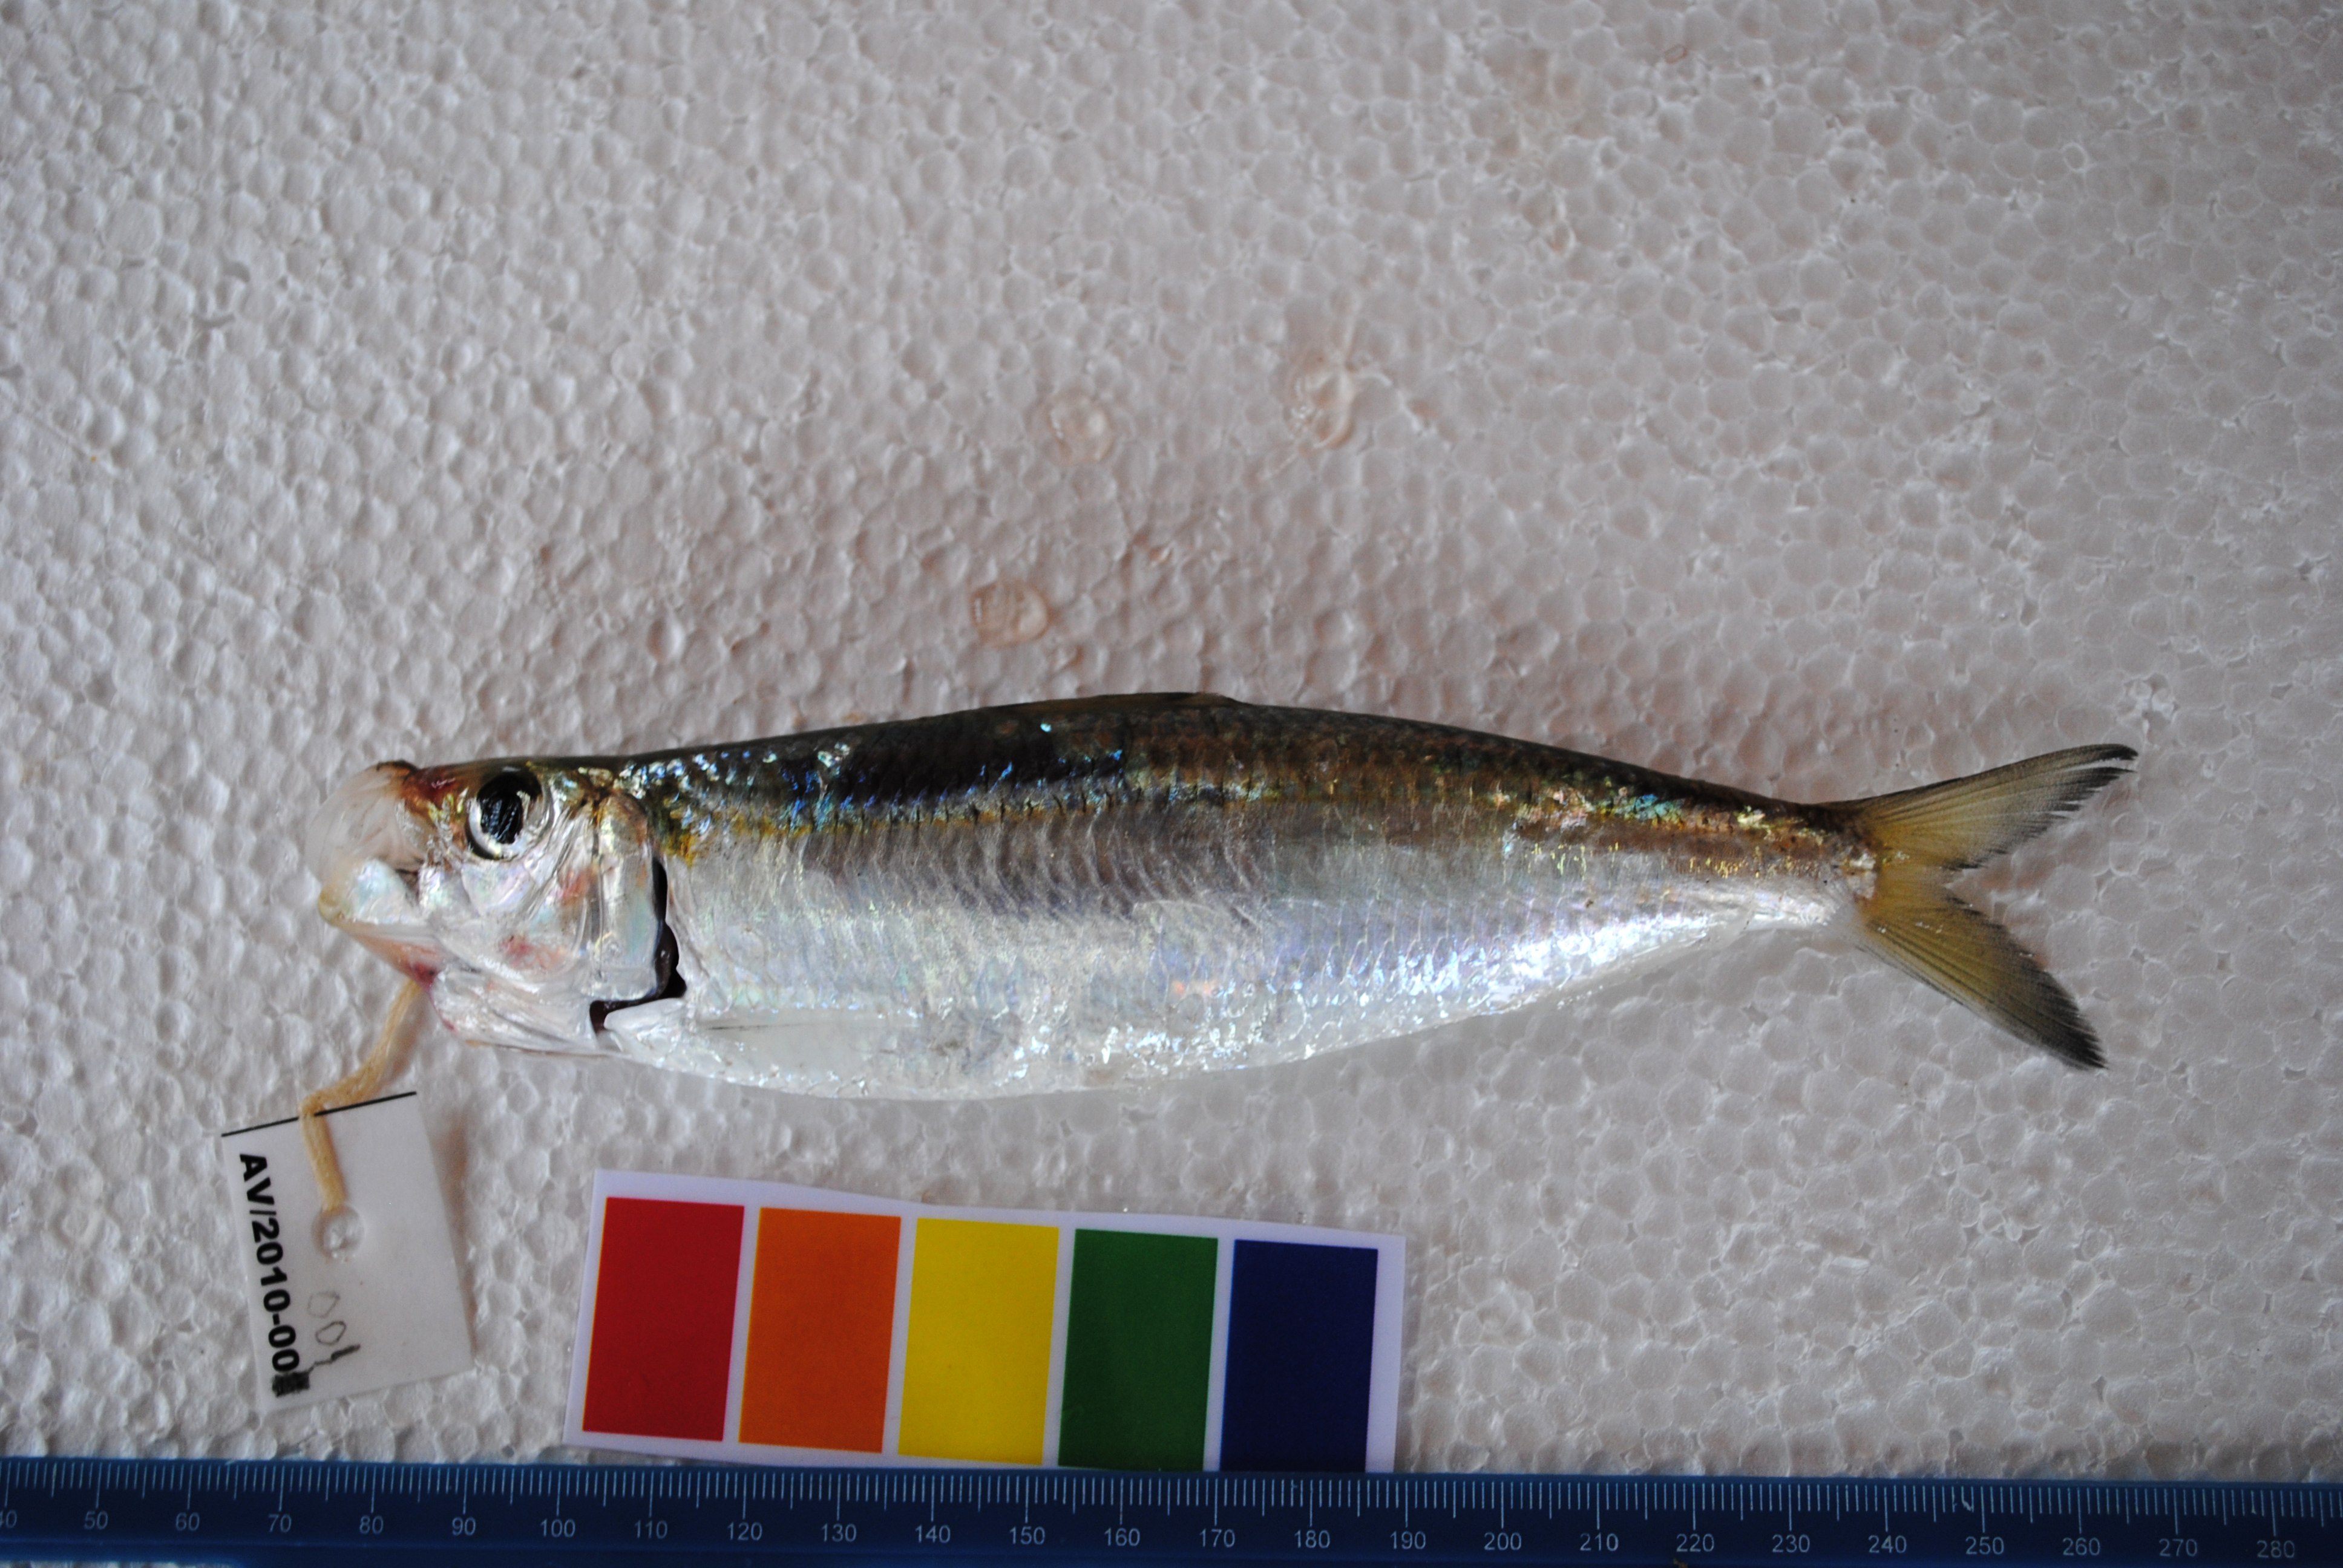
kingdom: Animalia
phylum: Chordata
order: Clupeiformes
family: Clupeidae
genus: Sardinella
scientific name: Sardinella gibbosa
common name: Goldstripe sardinella
